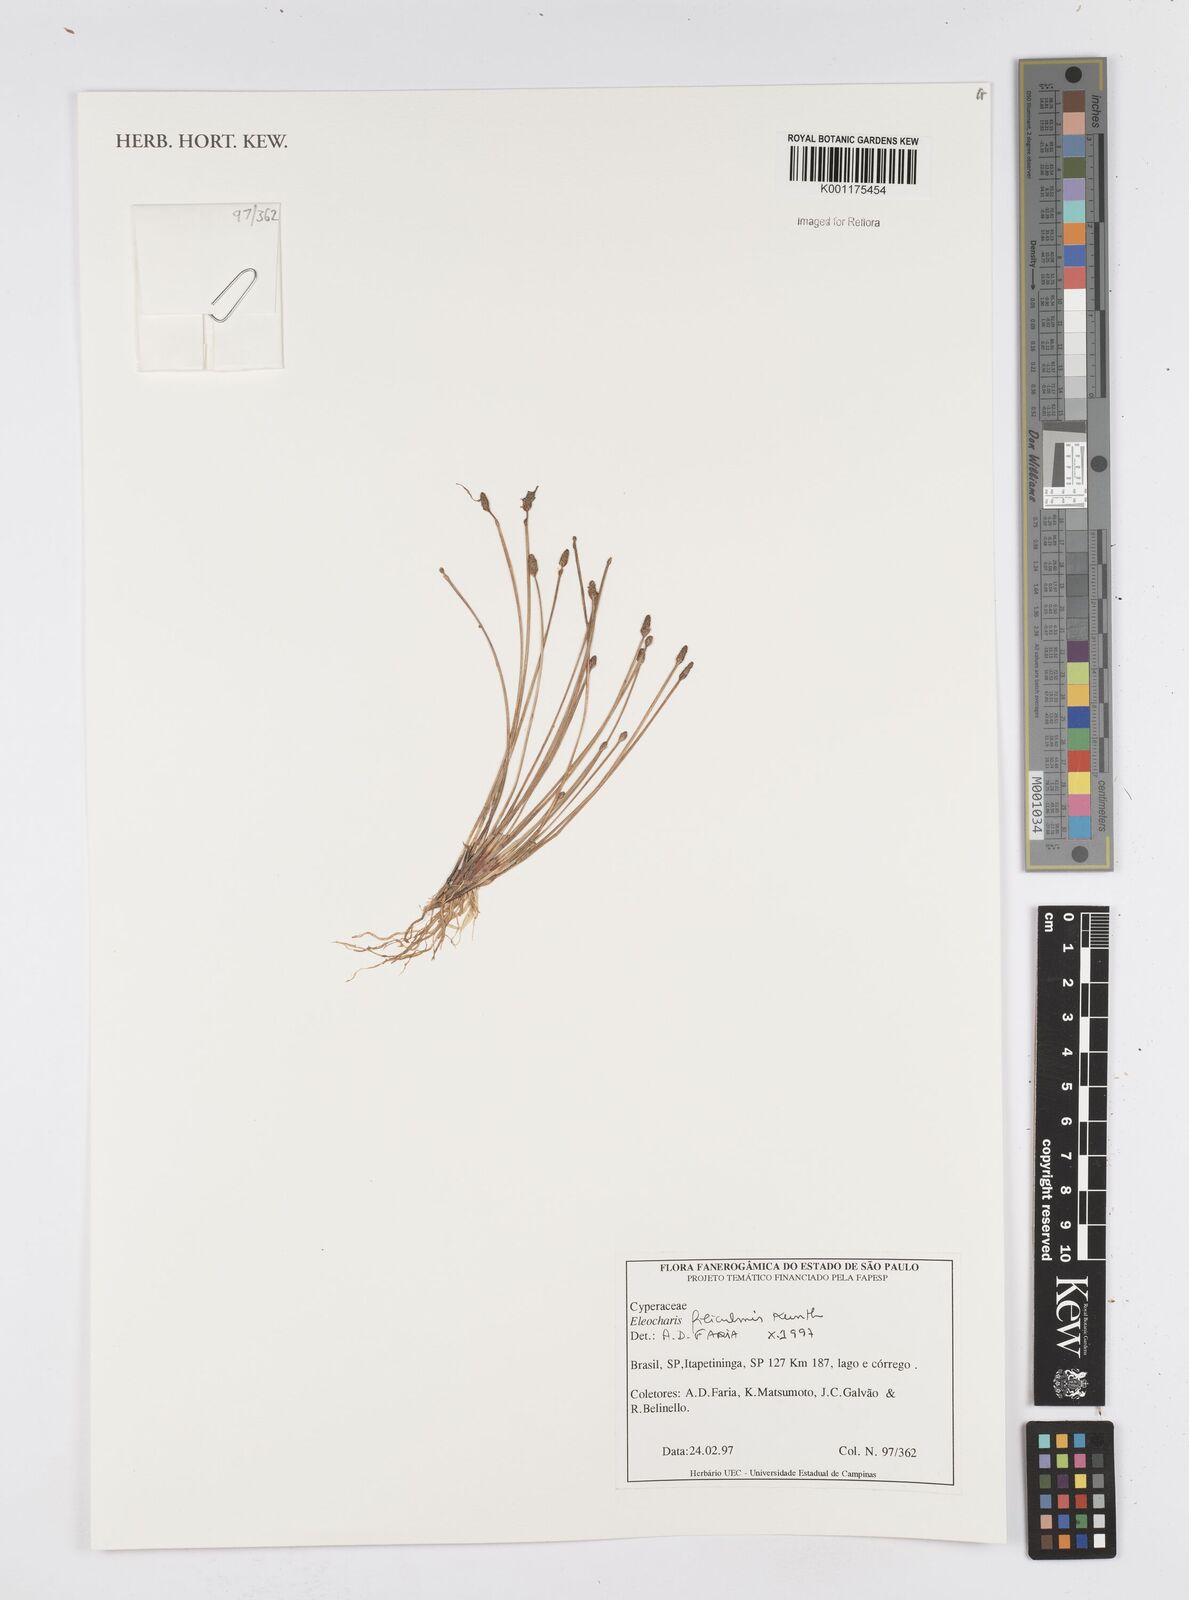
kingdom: Plantae
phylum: Tracheophyta
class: Liliopsida
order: Poales
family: Cyperaceae
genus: Eleocharis
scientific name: Eleocharis filiculmis
